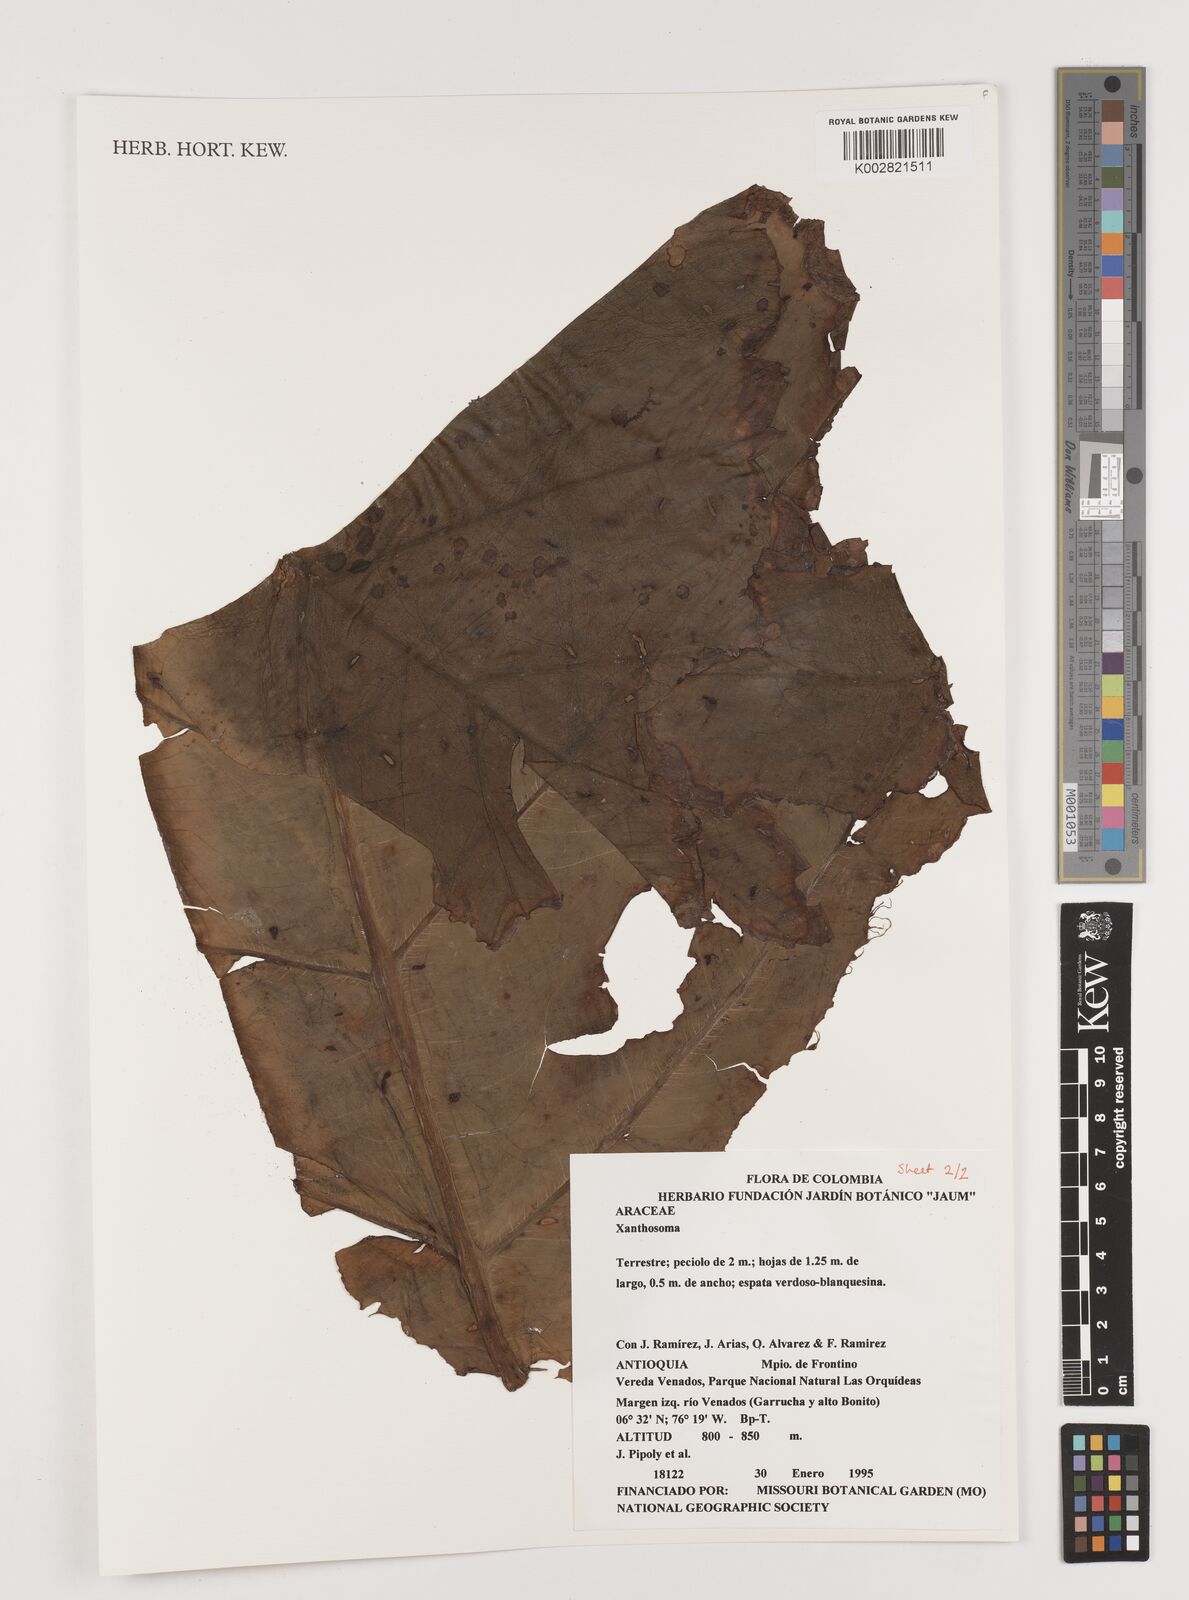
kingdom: Plantae
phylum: Tracheophyta
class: Liliopsida
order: Alismatales
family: Araceae
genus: Xanthosoma
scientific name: Xanthosoma
